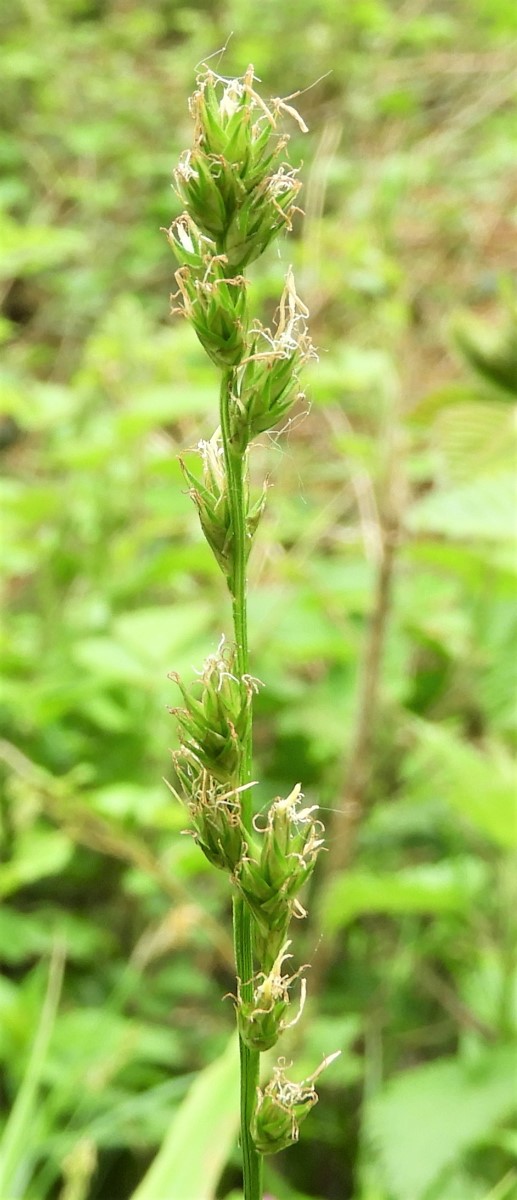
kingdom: Fungi
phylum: Basidiomycota
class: Pucciniomycetes
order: Pucciniales
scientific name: Pucciniales
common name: rustsvampeordenen
